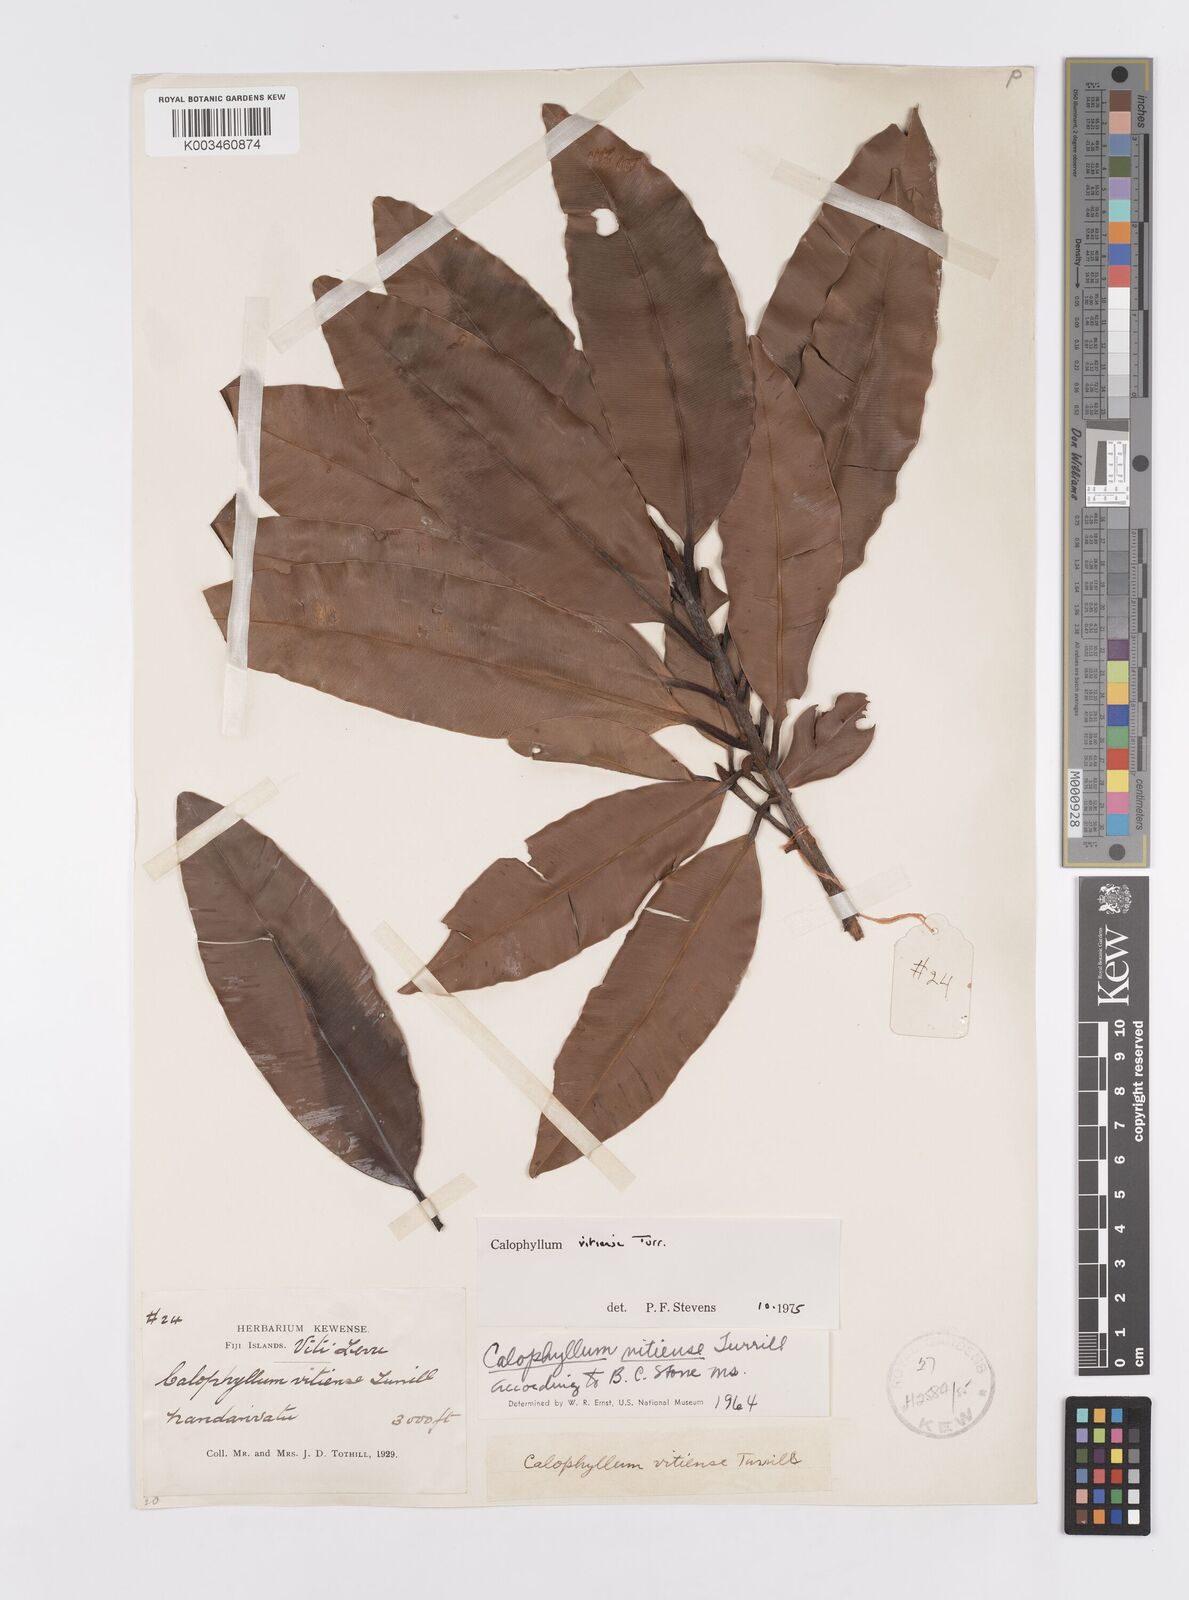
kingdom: Plantae
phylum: Tracheophyta
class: Magnoliopsida
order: Malpighiales
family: Calophyllaceae
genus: Calophyllum
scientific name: Calophyllum vitiense
